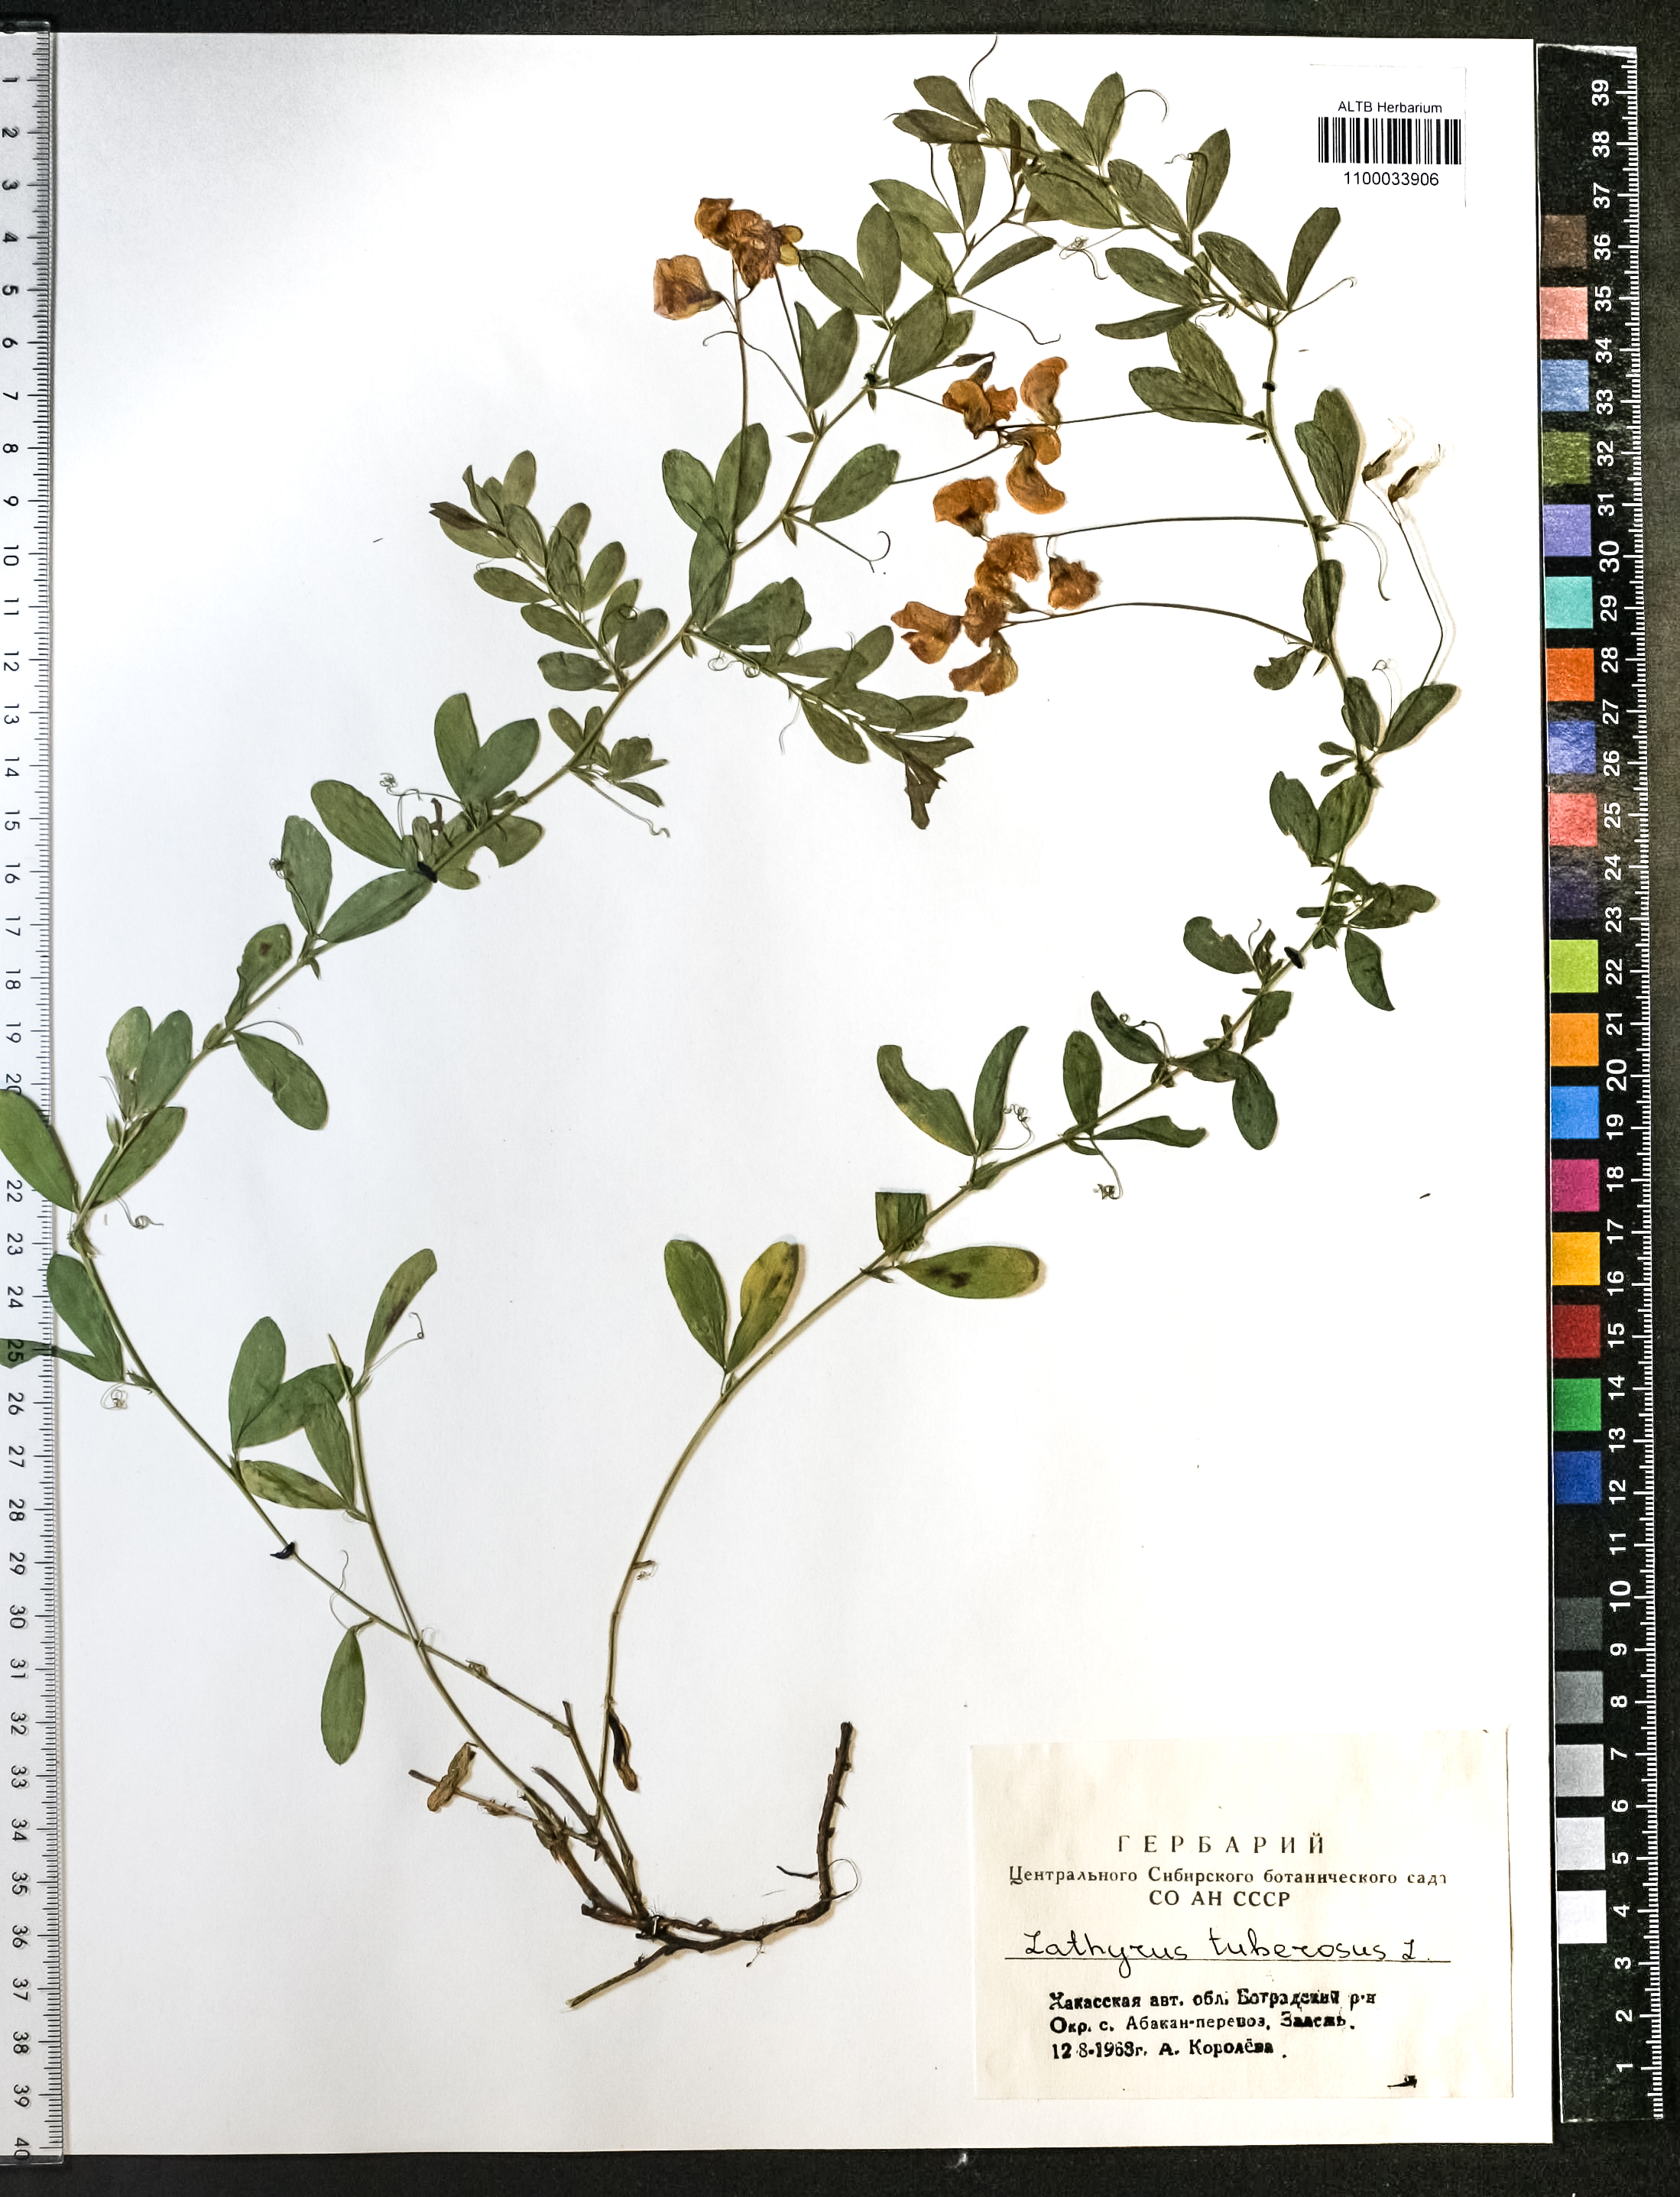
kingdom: Plantae
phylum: Tracheophyta
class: Magnoliopsida
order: Fabales
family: Fabaceae
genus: Lathyrus
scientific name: Lathyrus tuberosus
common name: Tuberous pea
